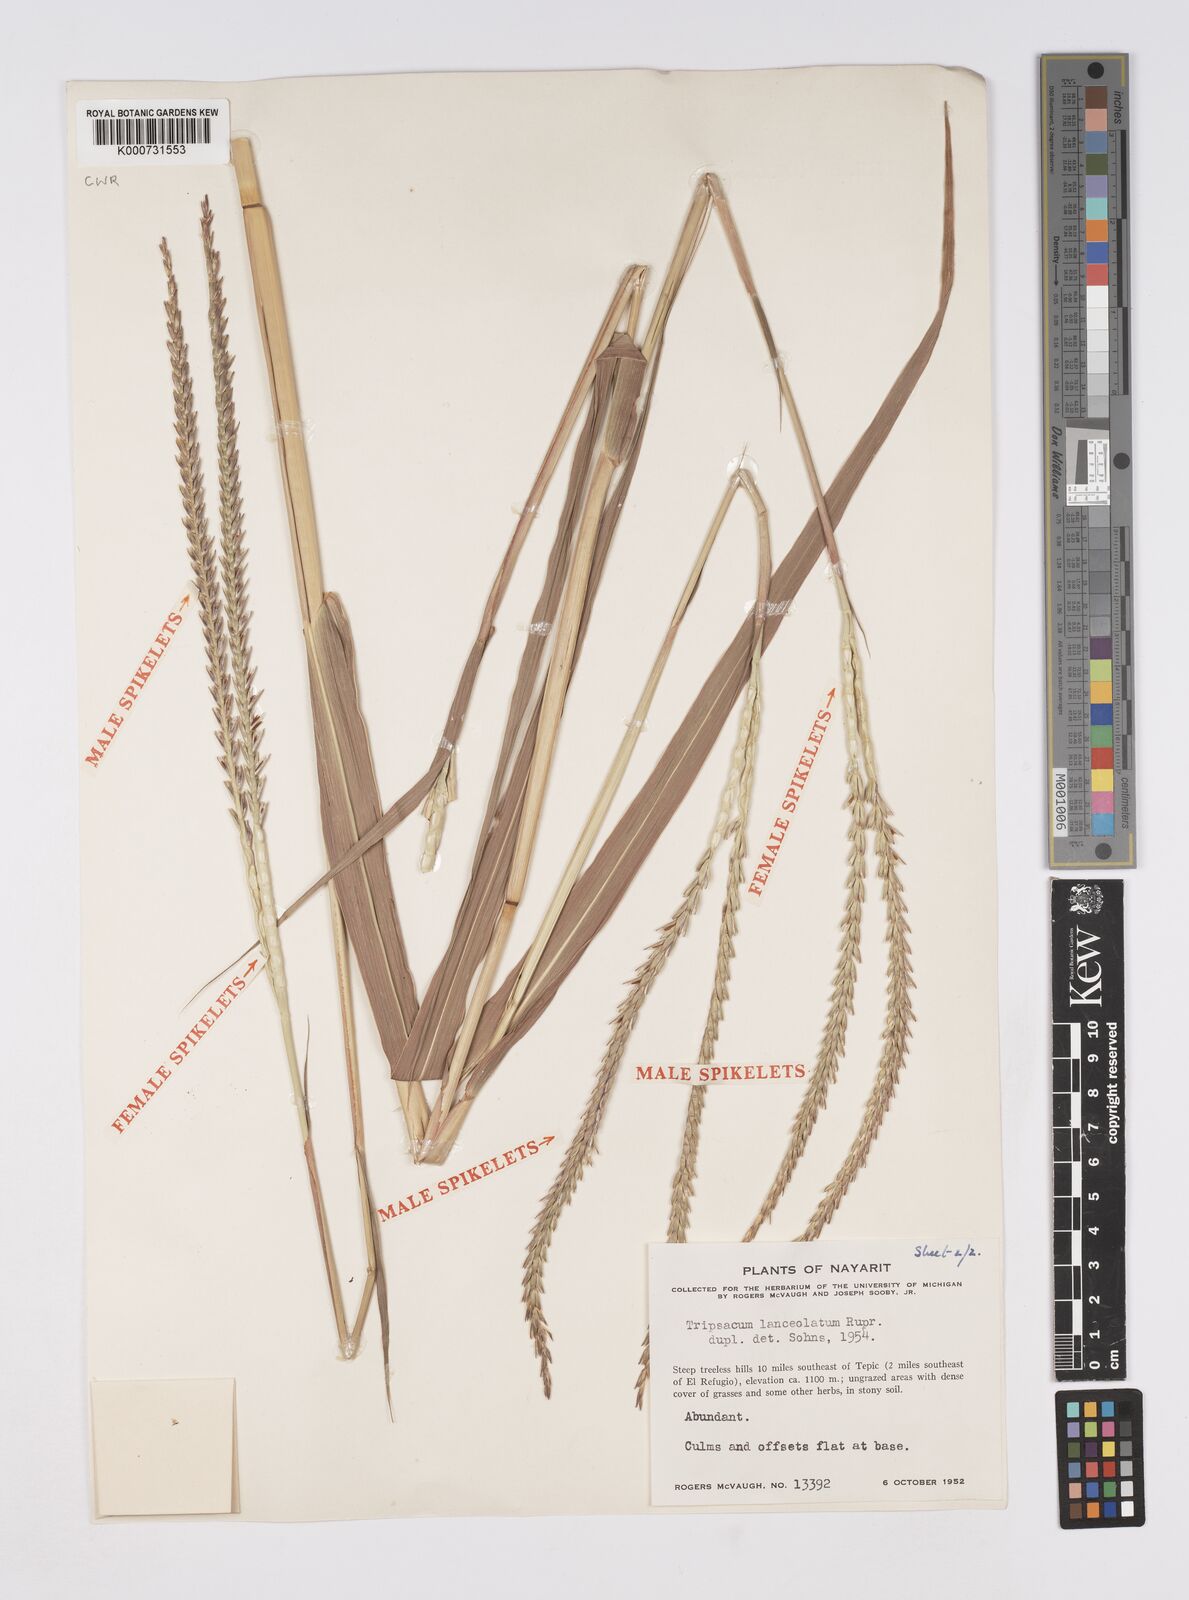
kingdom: Plantae
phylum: Tracheophyta
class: Liliopsida
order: Poales
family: Poaceae
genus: Tripsacum
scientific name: Tripsacum
